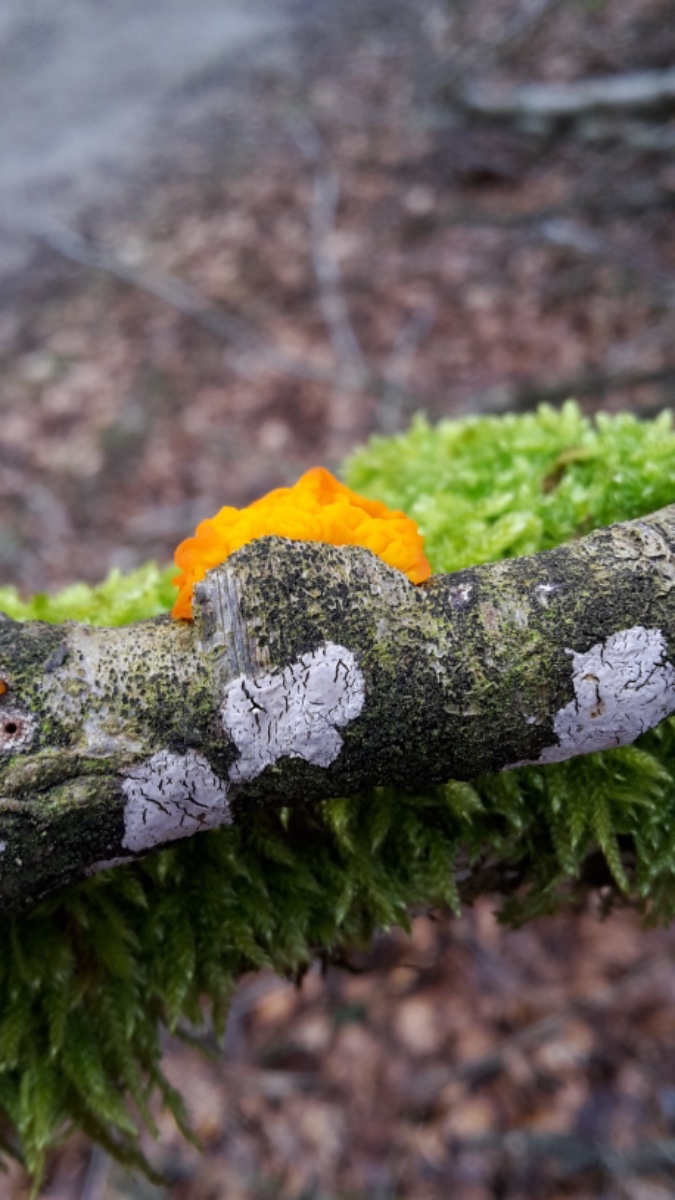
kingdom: Fungi
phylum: Basidiomycota
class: Agaricomycetes
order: Russulales
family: Peniophoraceae
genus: Peniophora
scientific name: Peniophora cinerea
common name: grå voksskind
